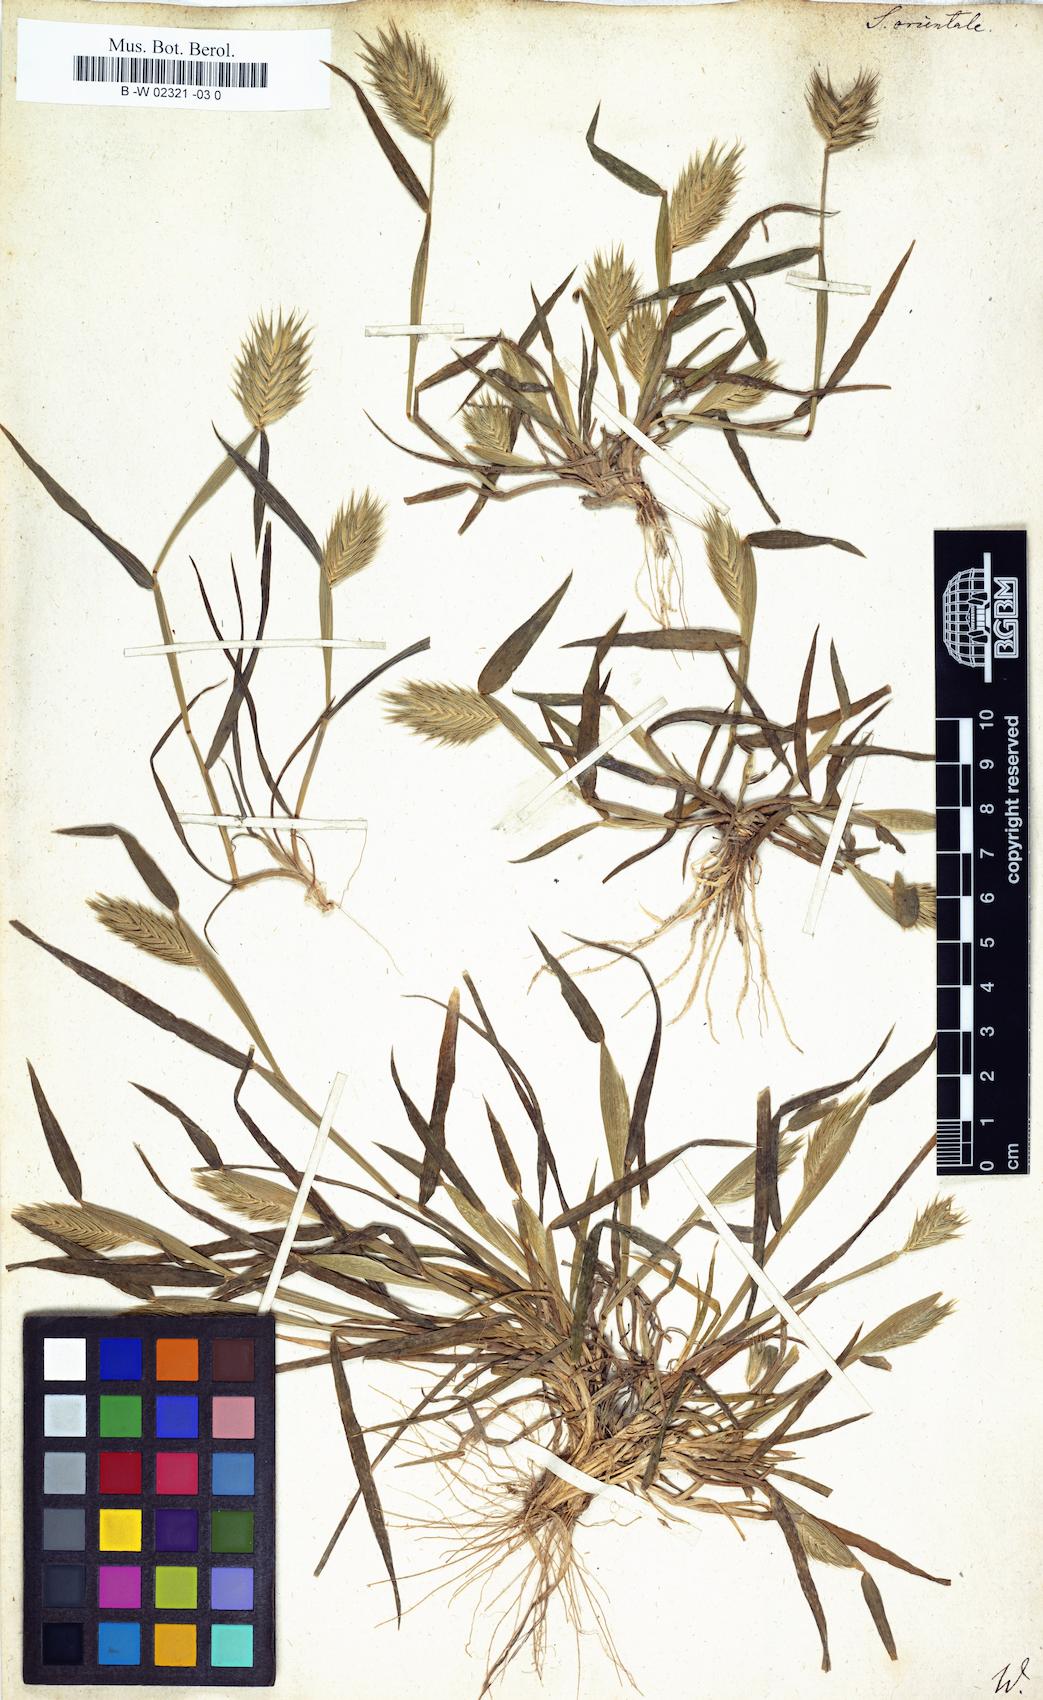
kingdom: Plantae
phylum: Tracheophyta
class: Liliopsida
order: Poales
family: Poaceae
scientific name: Poaceae
